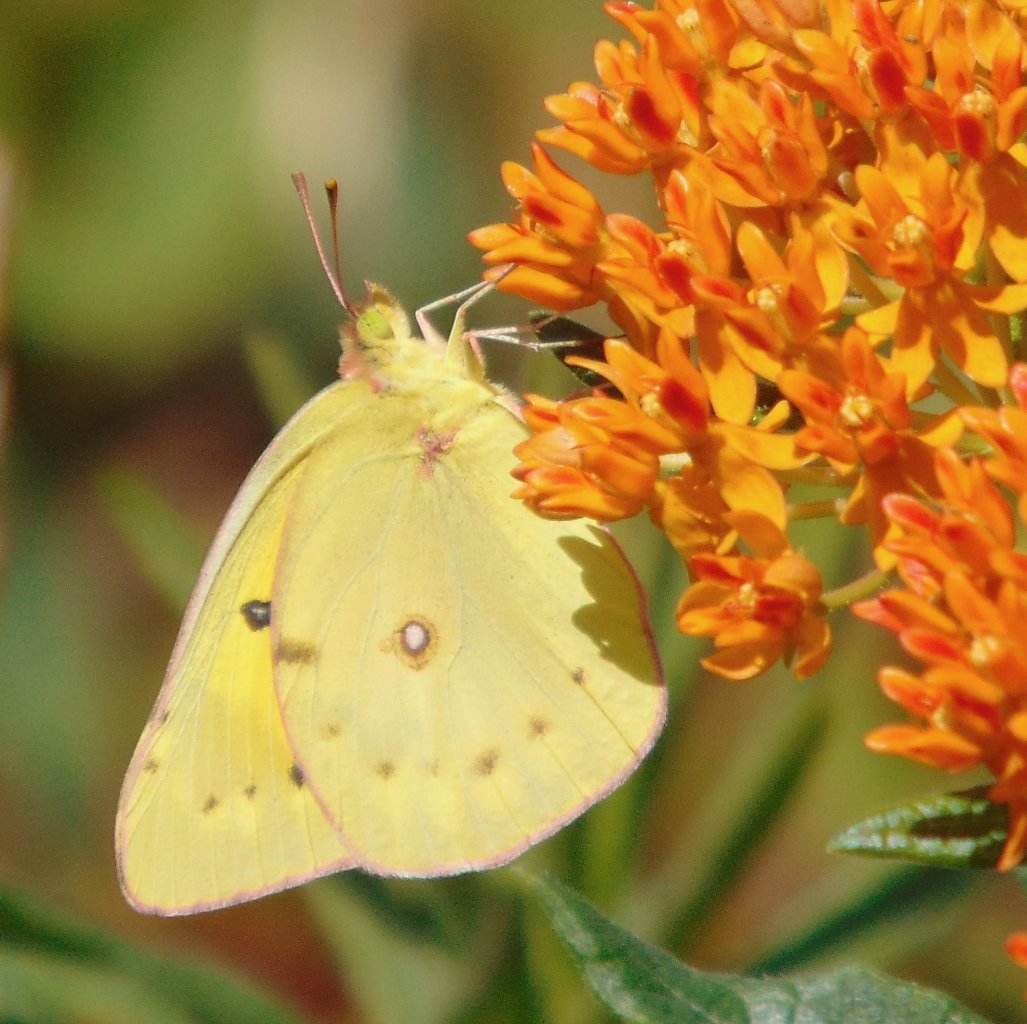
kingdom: Animalia
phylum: Arthropoda
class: Insecta
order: Lepidoptera
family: Pieridae
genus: Colias
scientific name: Colias philodice
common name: Clouded Sulphur
